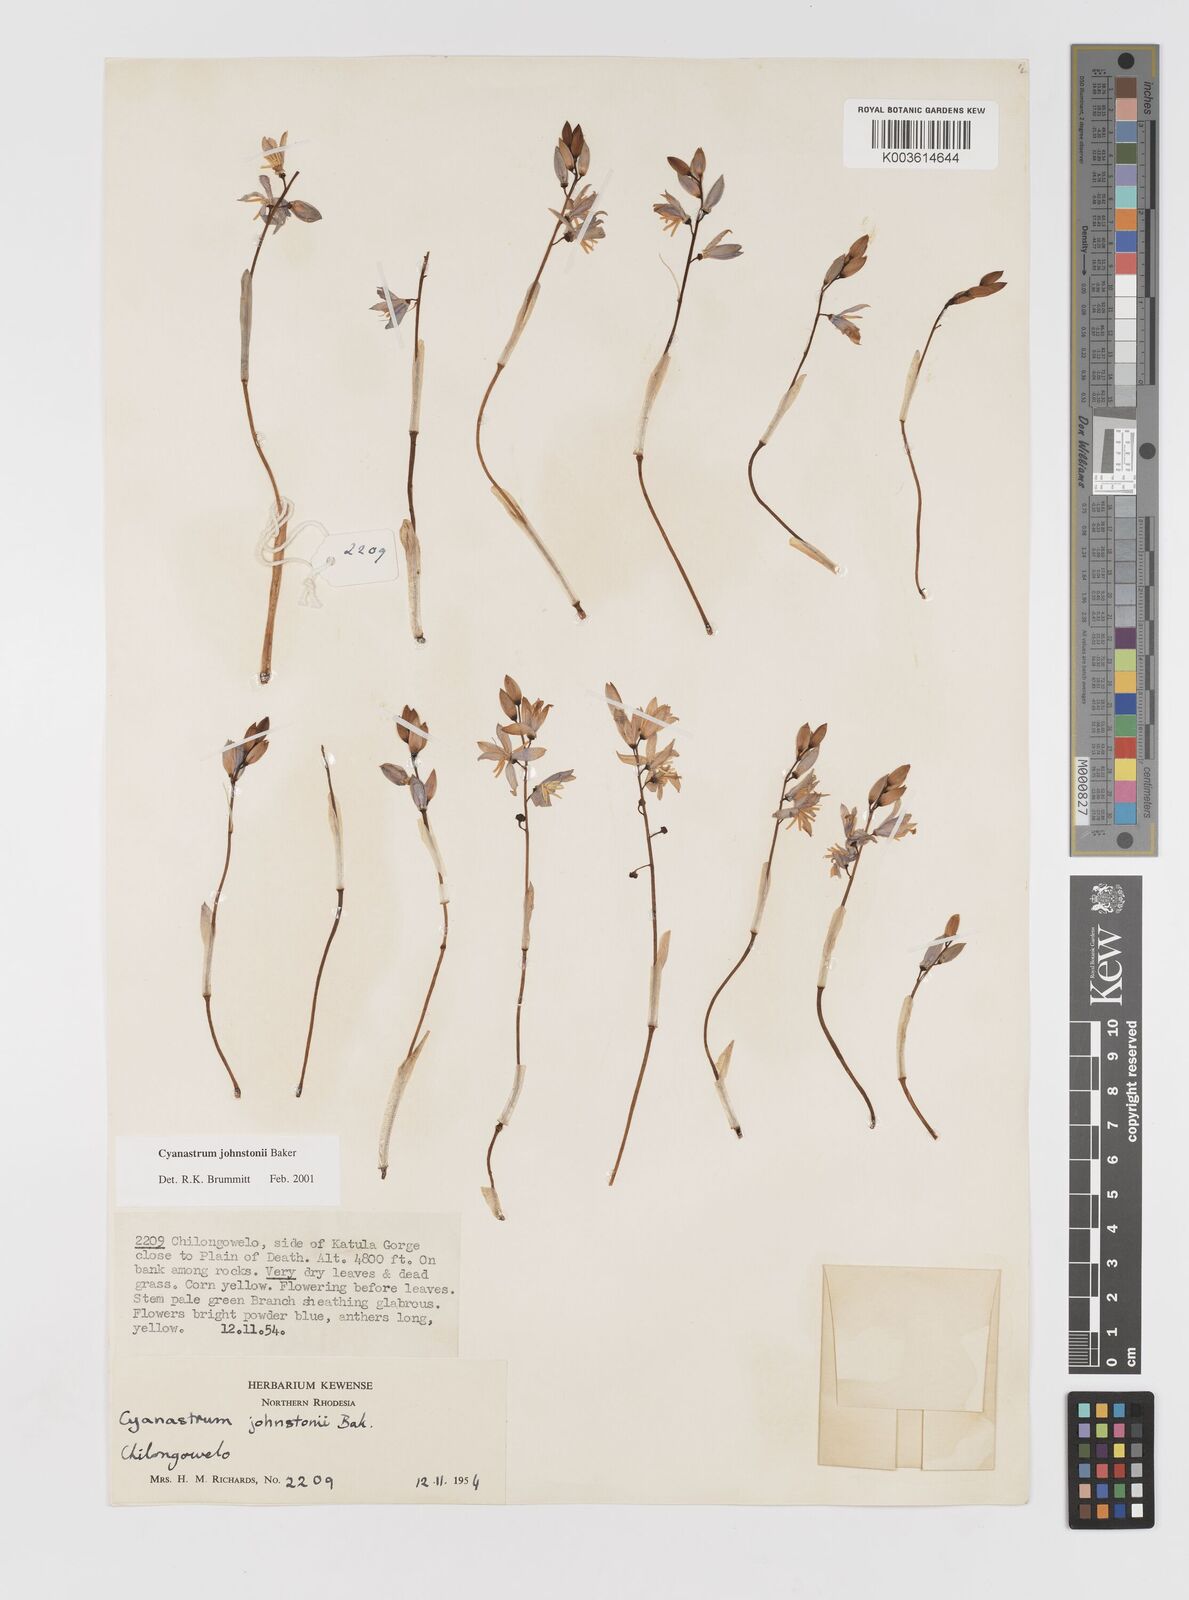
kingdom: Plantae
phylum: Tracheophyta
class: Liliopsida
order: Asparagales
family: Tecophilaeaceae
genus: Cyanastrum
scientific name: Cyanastrum johnstonii
